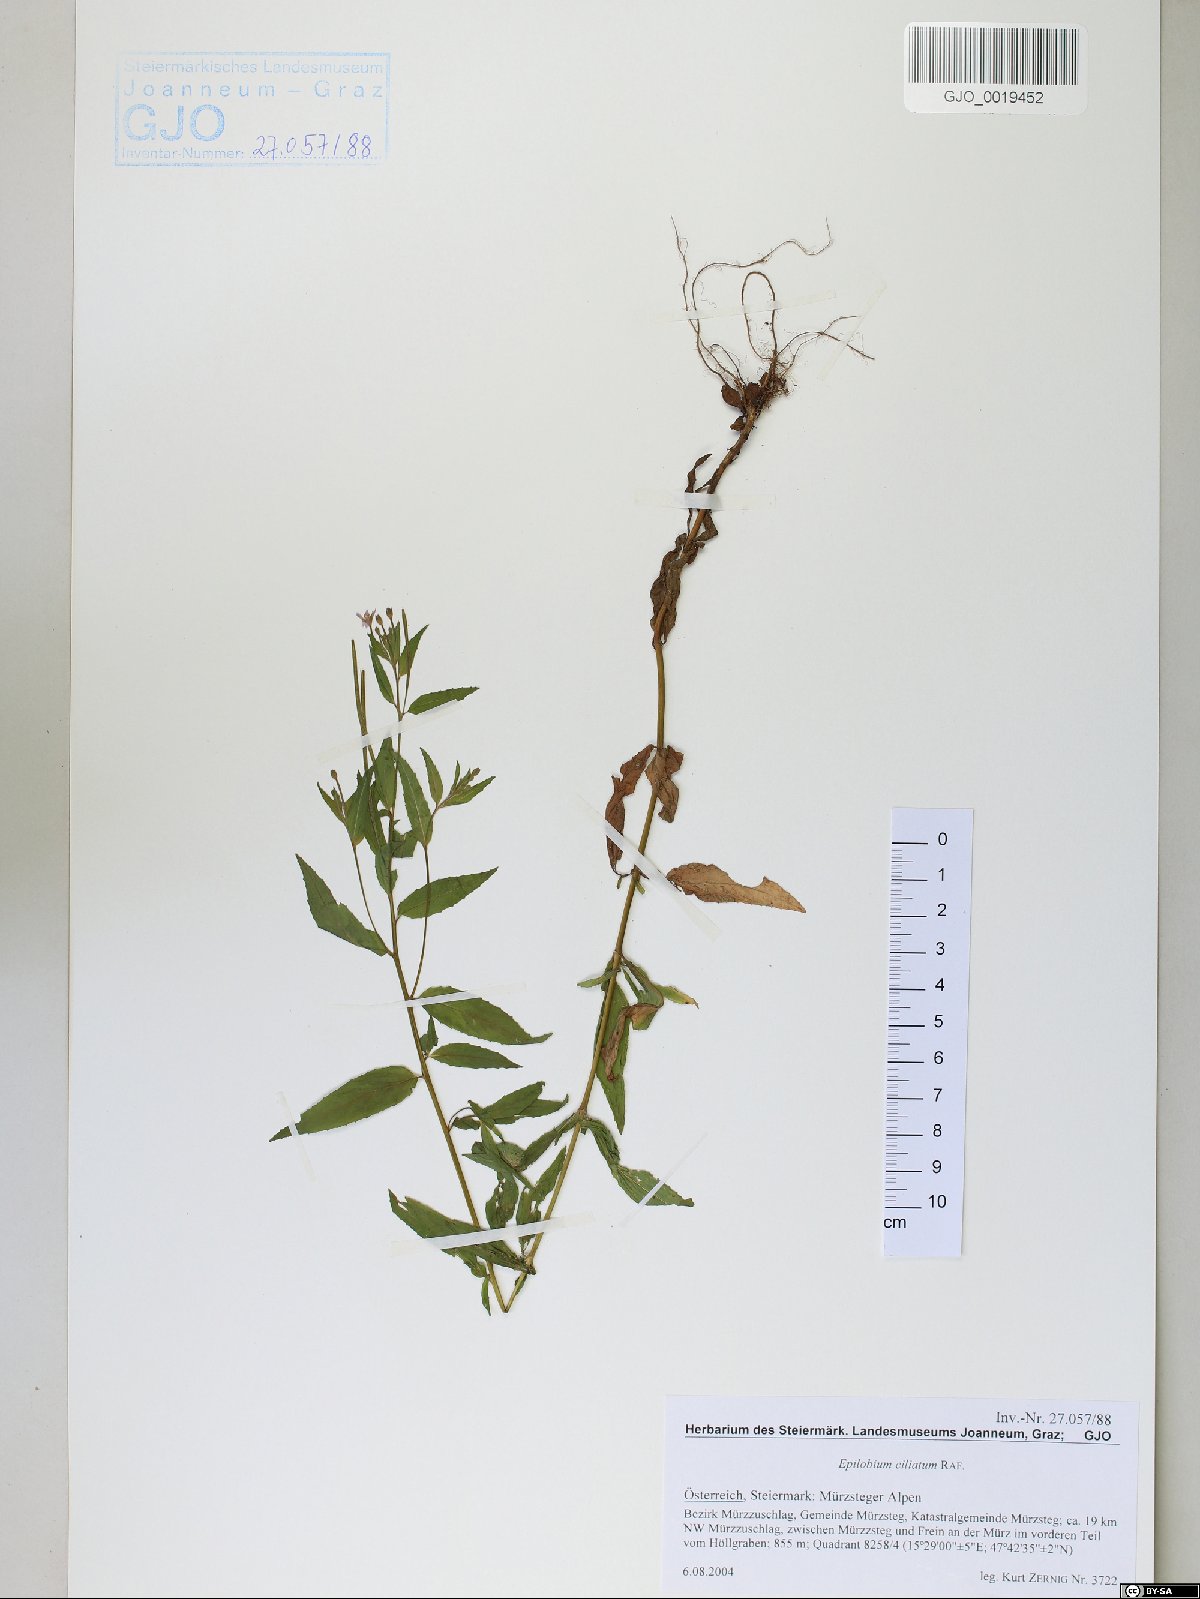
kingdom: Plantae
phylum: Tracheophyta
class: Magnoliopsida
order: Myrtales
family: Onagraceae
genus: Epilobium
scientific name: Epilobium ciliatum
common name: American willowherb
